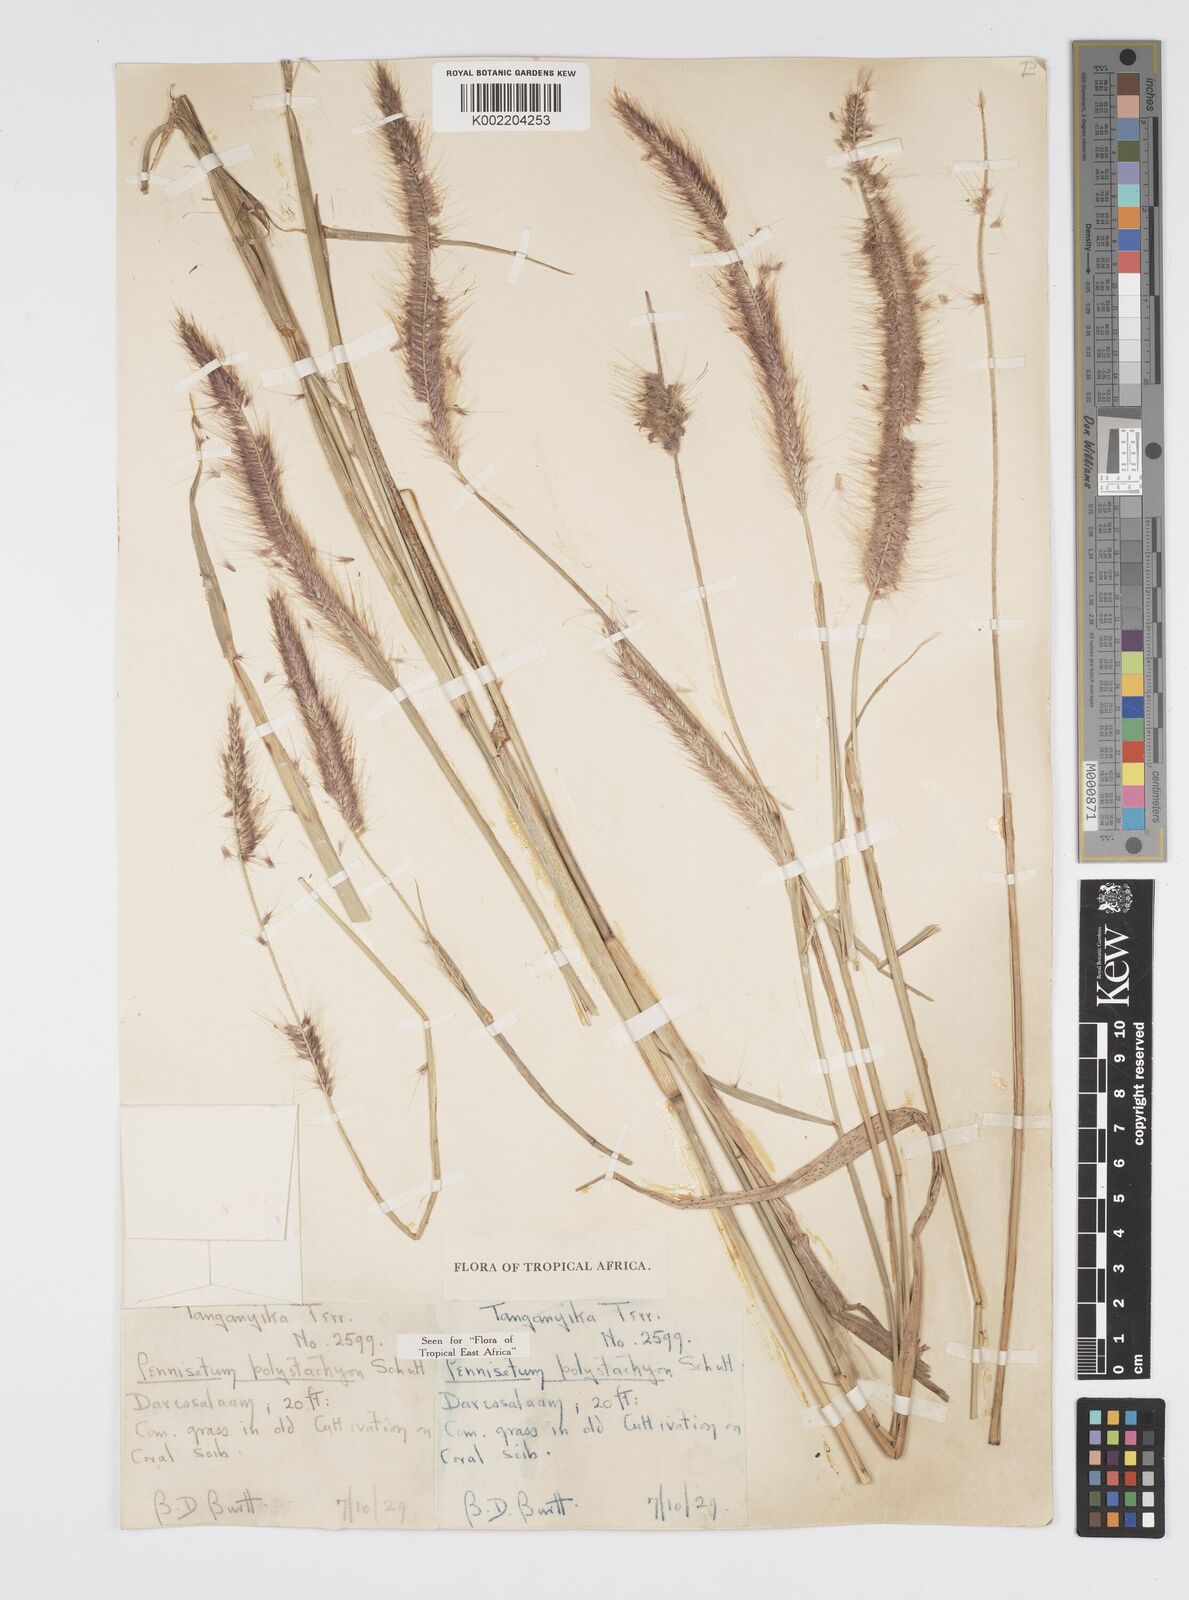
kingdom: Plantae
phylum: Tracheophyta
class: Liliopsida
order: Poales
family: Poaceae
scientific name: Poaceae
